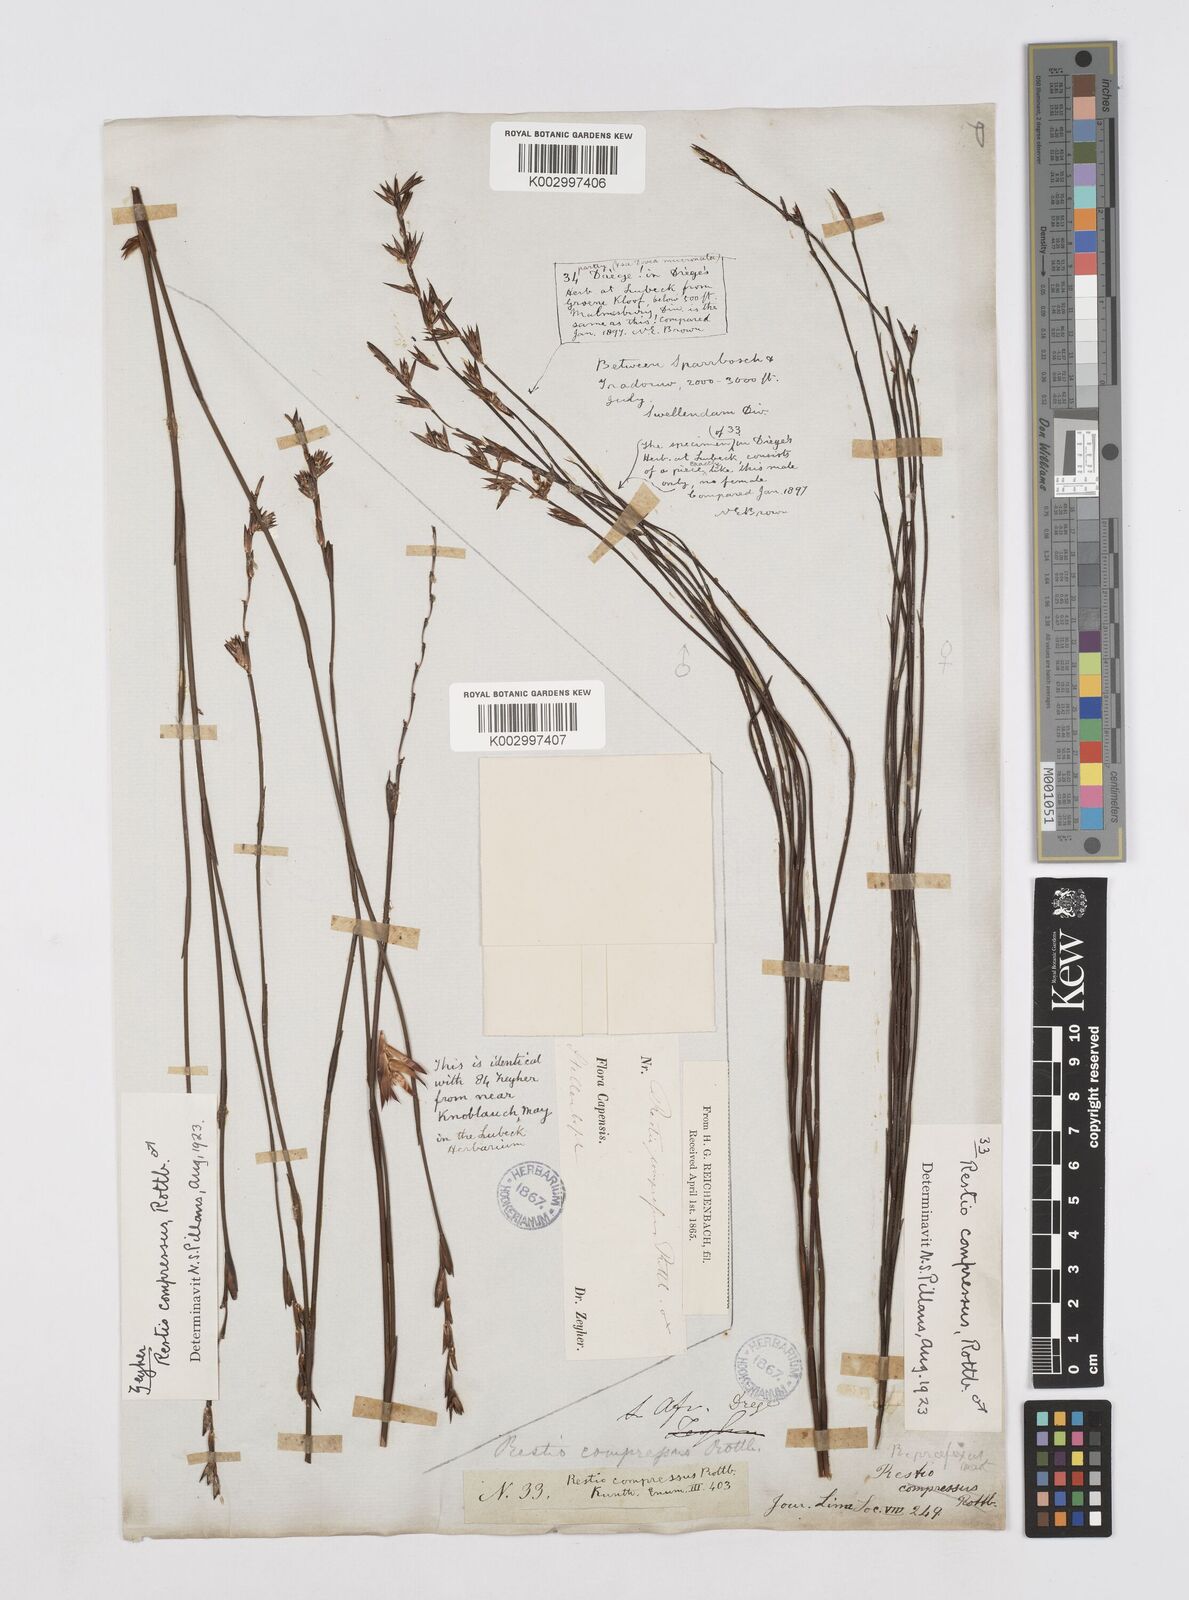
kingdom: Plantae
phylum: Tracheophyta
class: Liliopsida
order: Poales
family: Restionaceae
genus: Platycaulos
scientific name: Platycaulos compressus
